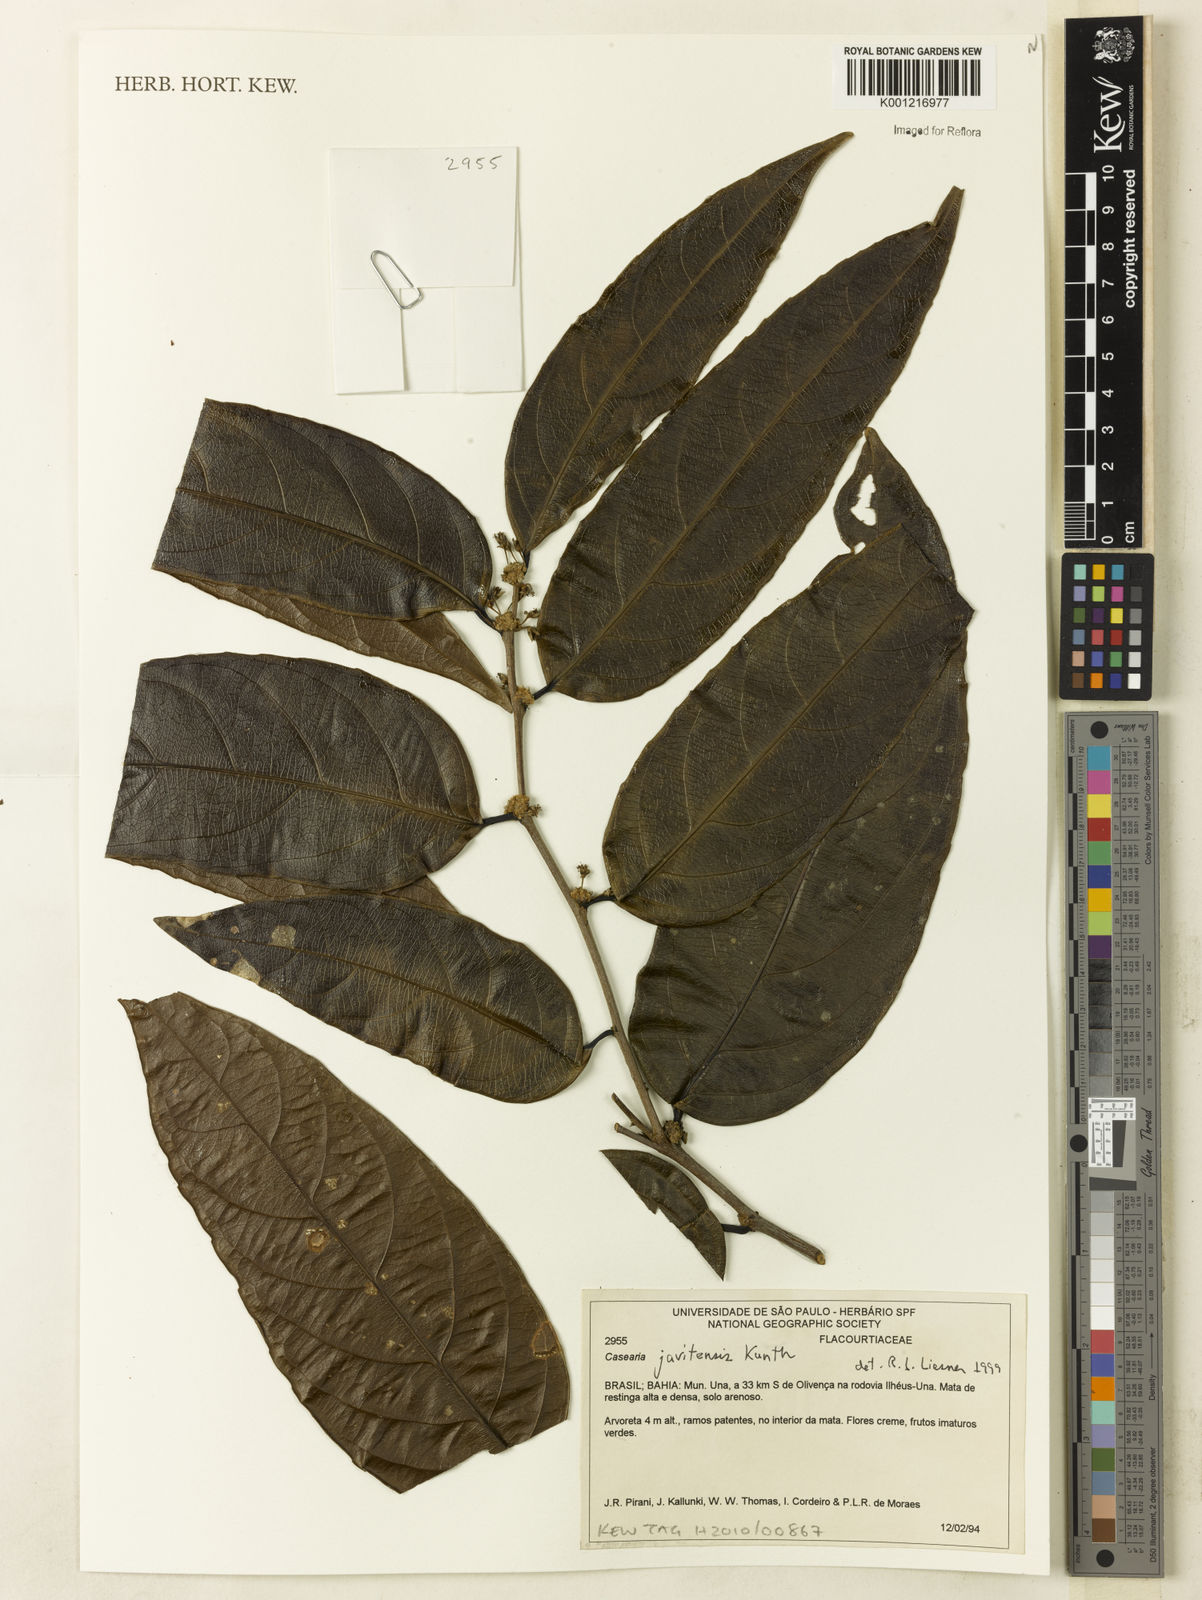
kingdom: Plantae
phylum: Tracheophyta
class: Magnoliopsida
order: Malpighiales
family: Salicaceae
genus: Piparea
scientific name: Piparea multiflora
